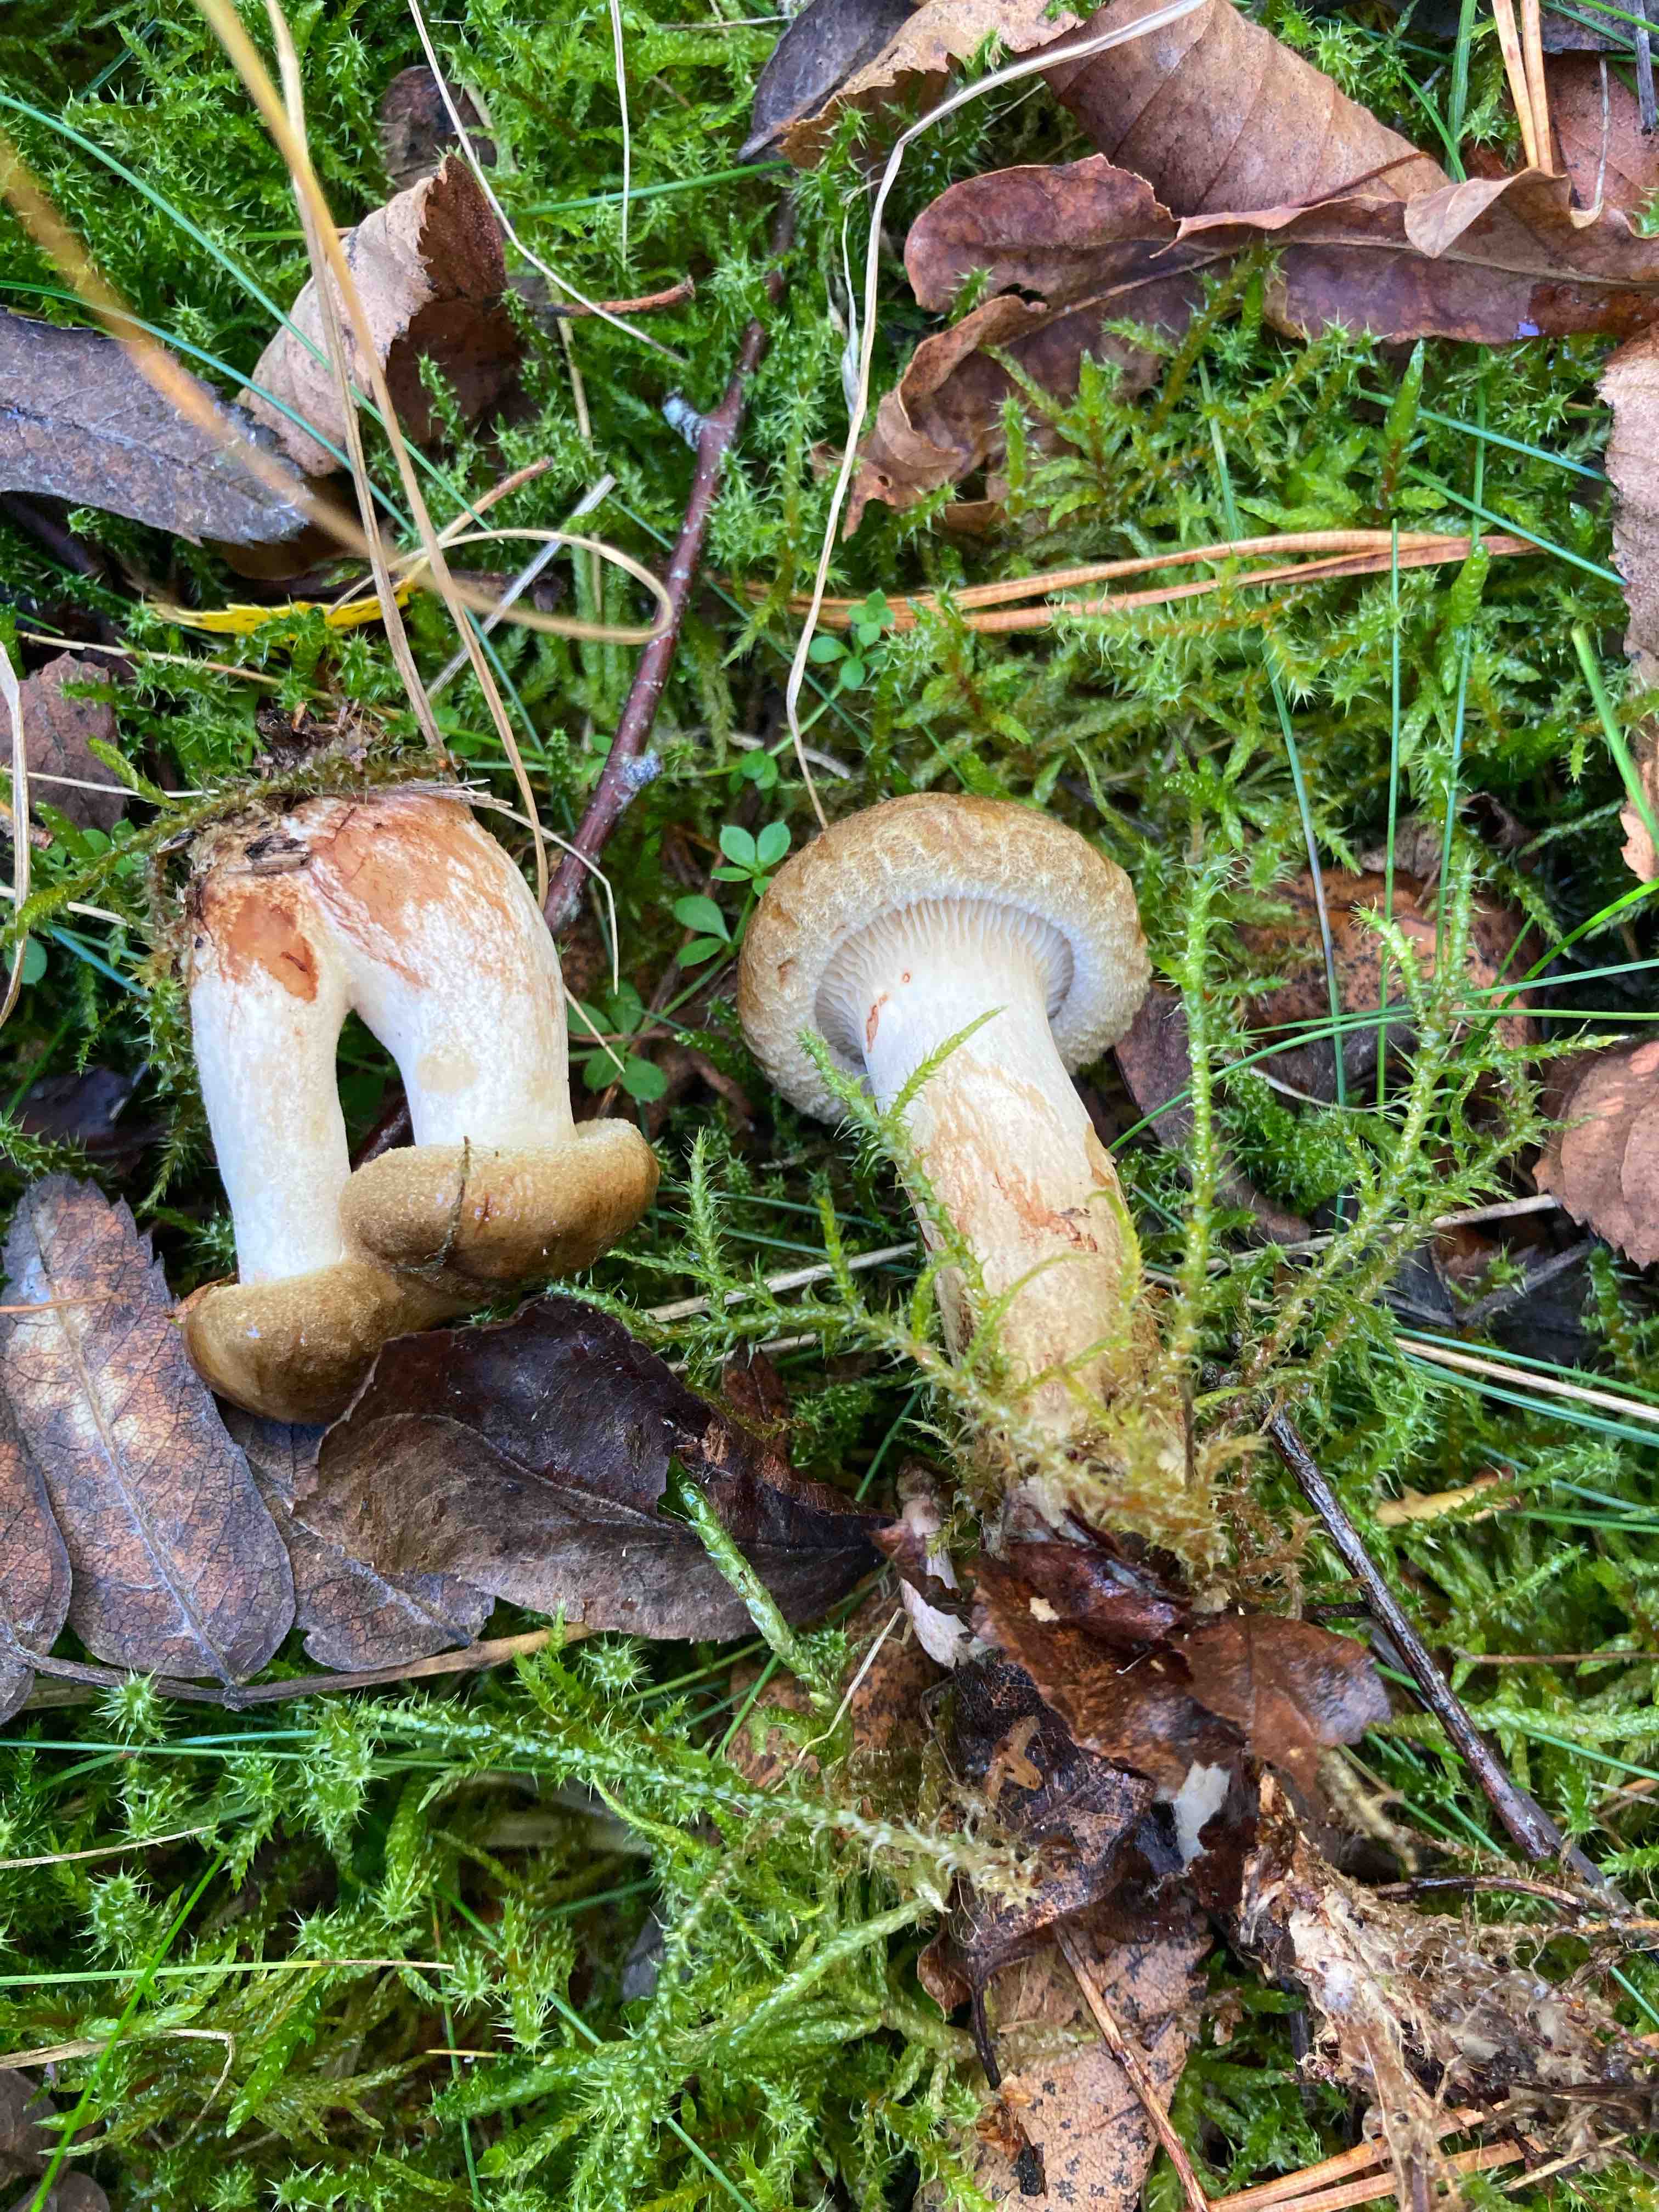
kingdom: Fungi
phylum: Basidiomycota
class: Agaricomycetes
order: Boletales
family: Paxillaceae
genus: Paxillus
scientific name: Paxillus involutus
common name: almindelig netbladhat
